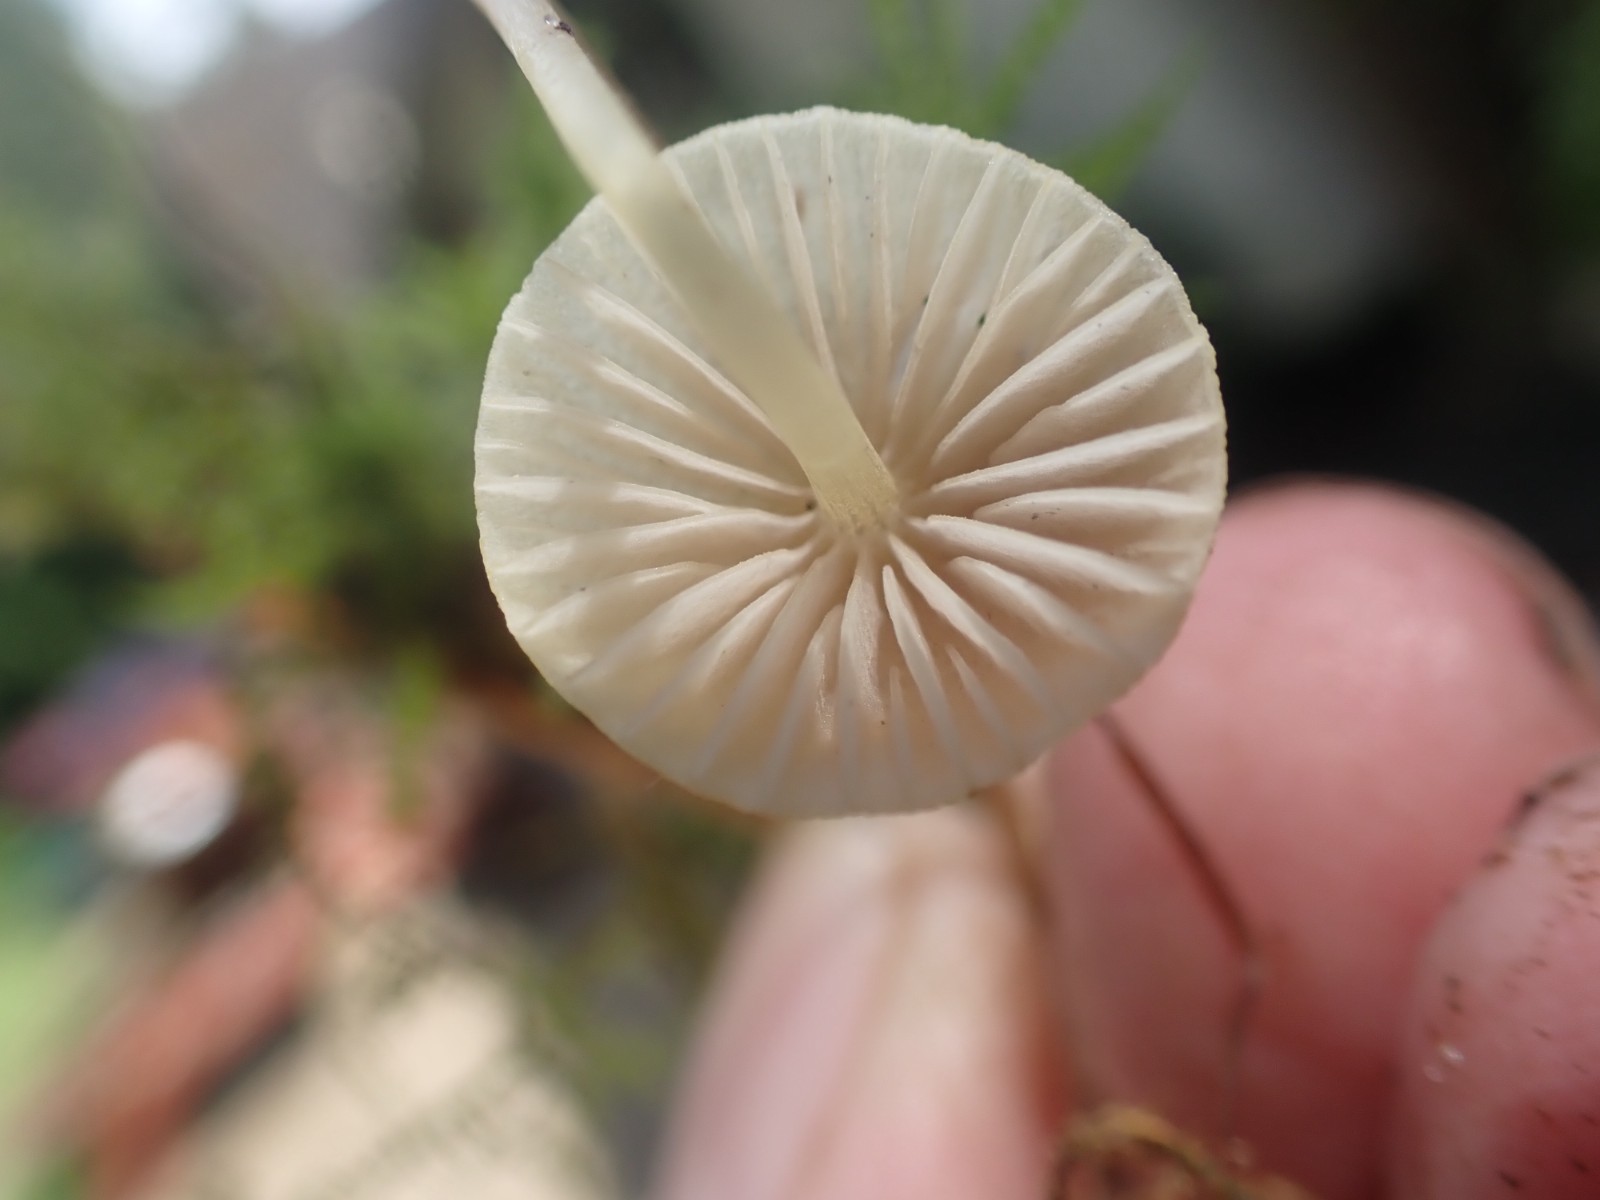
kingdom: Fungi
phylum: Basidiomycota
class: Agaricomycetes
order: Agaricales
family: Mycenaceae
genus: Mycena
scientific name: Mycena citrinomarginata
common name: gulægget huesvamp
